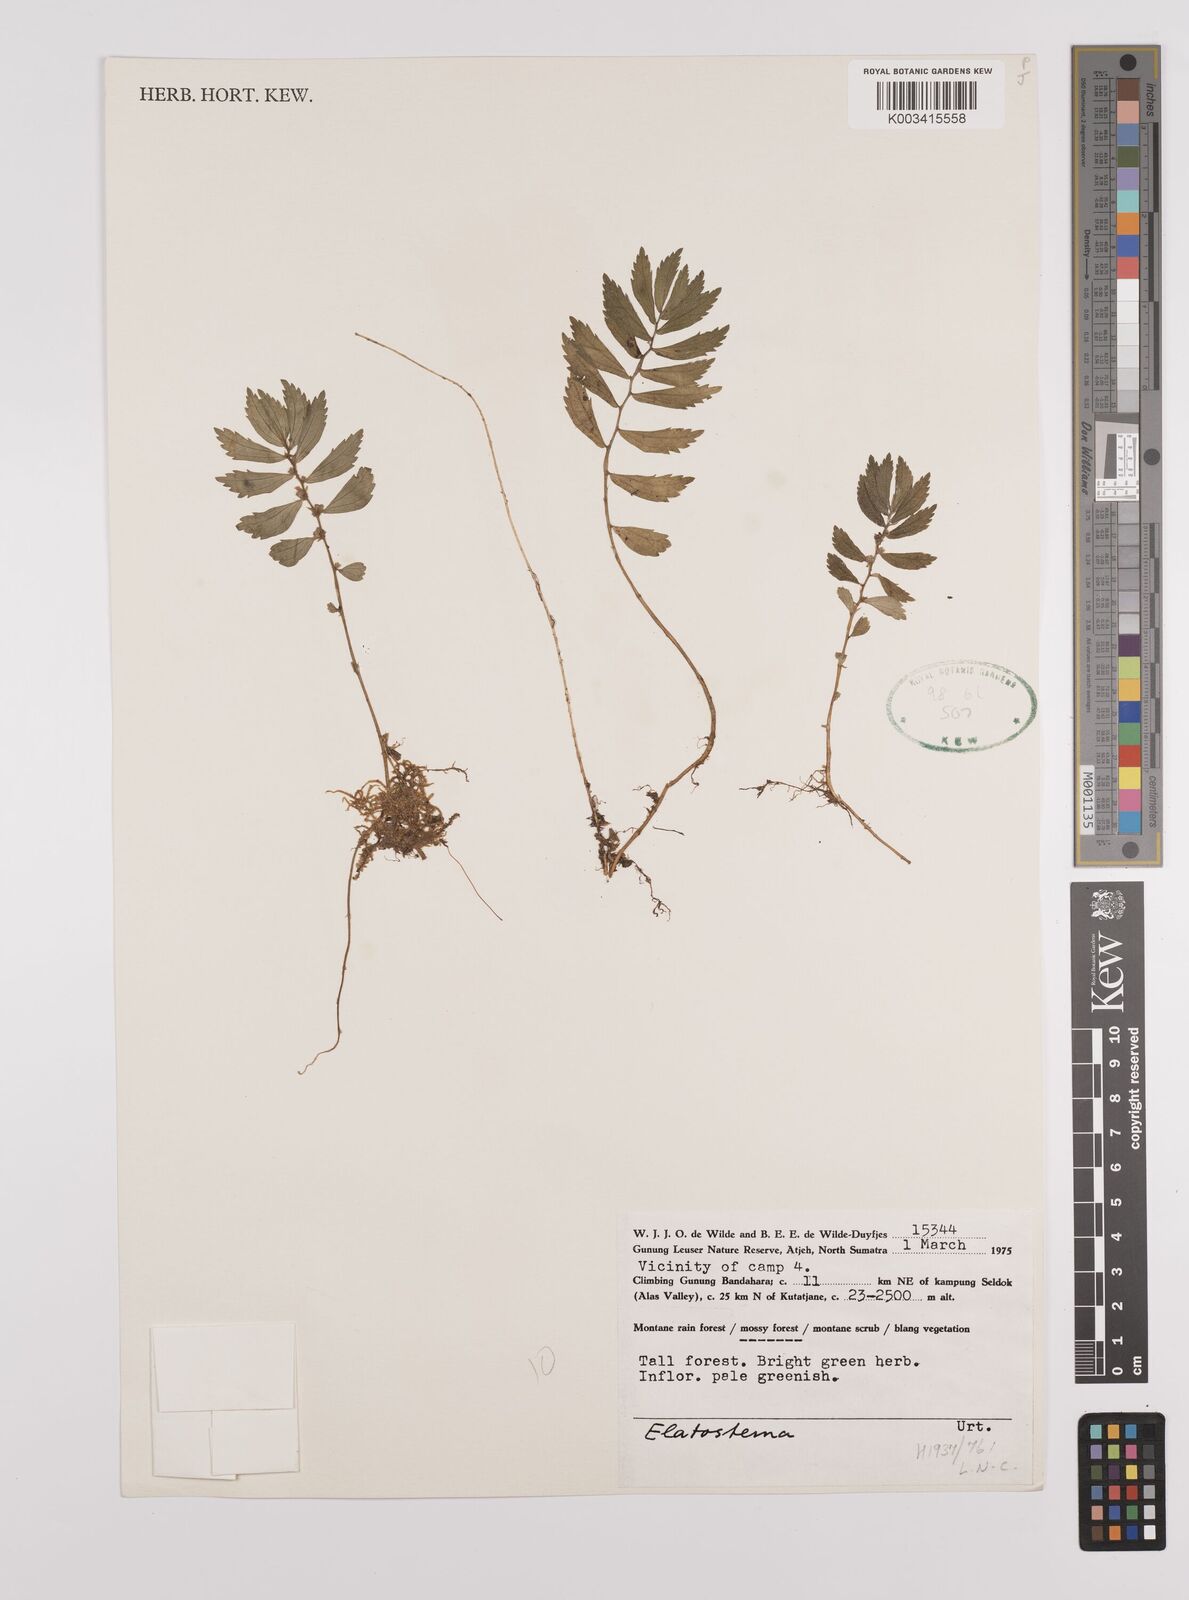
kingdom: Plantae
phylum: Tracheophyta
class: Magnoliopsida
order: Rosales
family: Urticaceae
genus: Elatostema
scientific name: Elatostema
